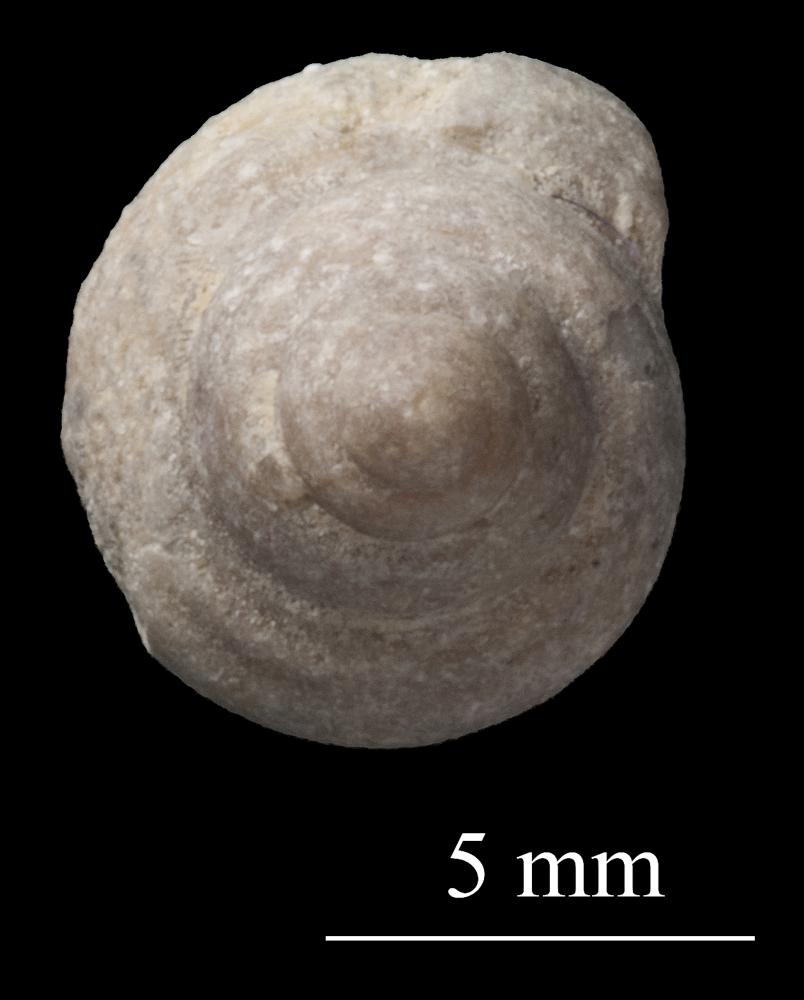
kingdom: Animalia
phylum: Mollusca
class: Gastropoda
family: Lophospiridae
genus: Proturritella
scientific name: Proturritella Turbinites bicarinatus
